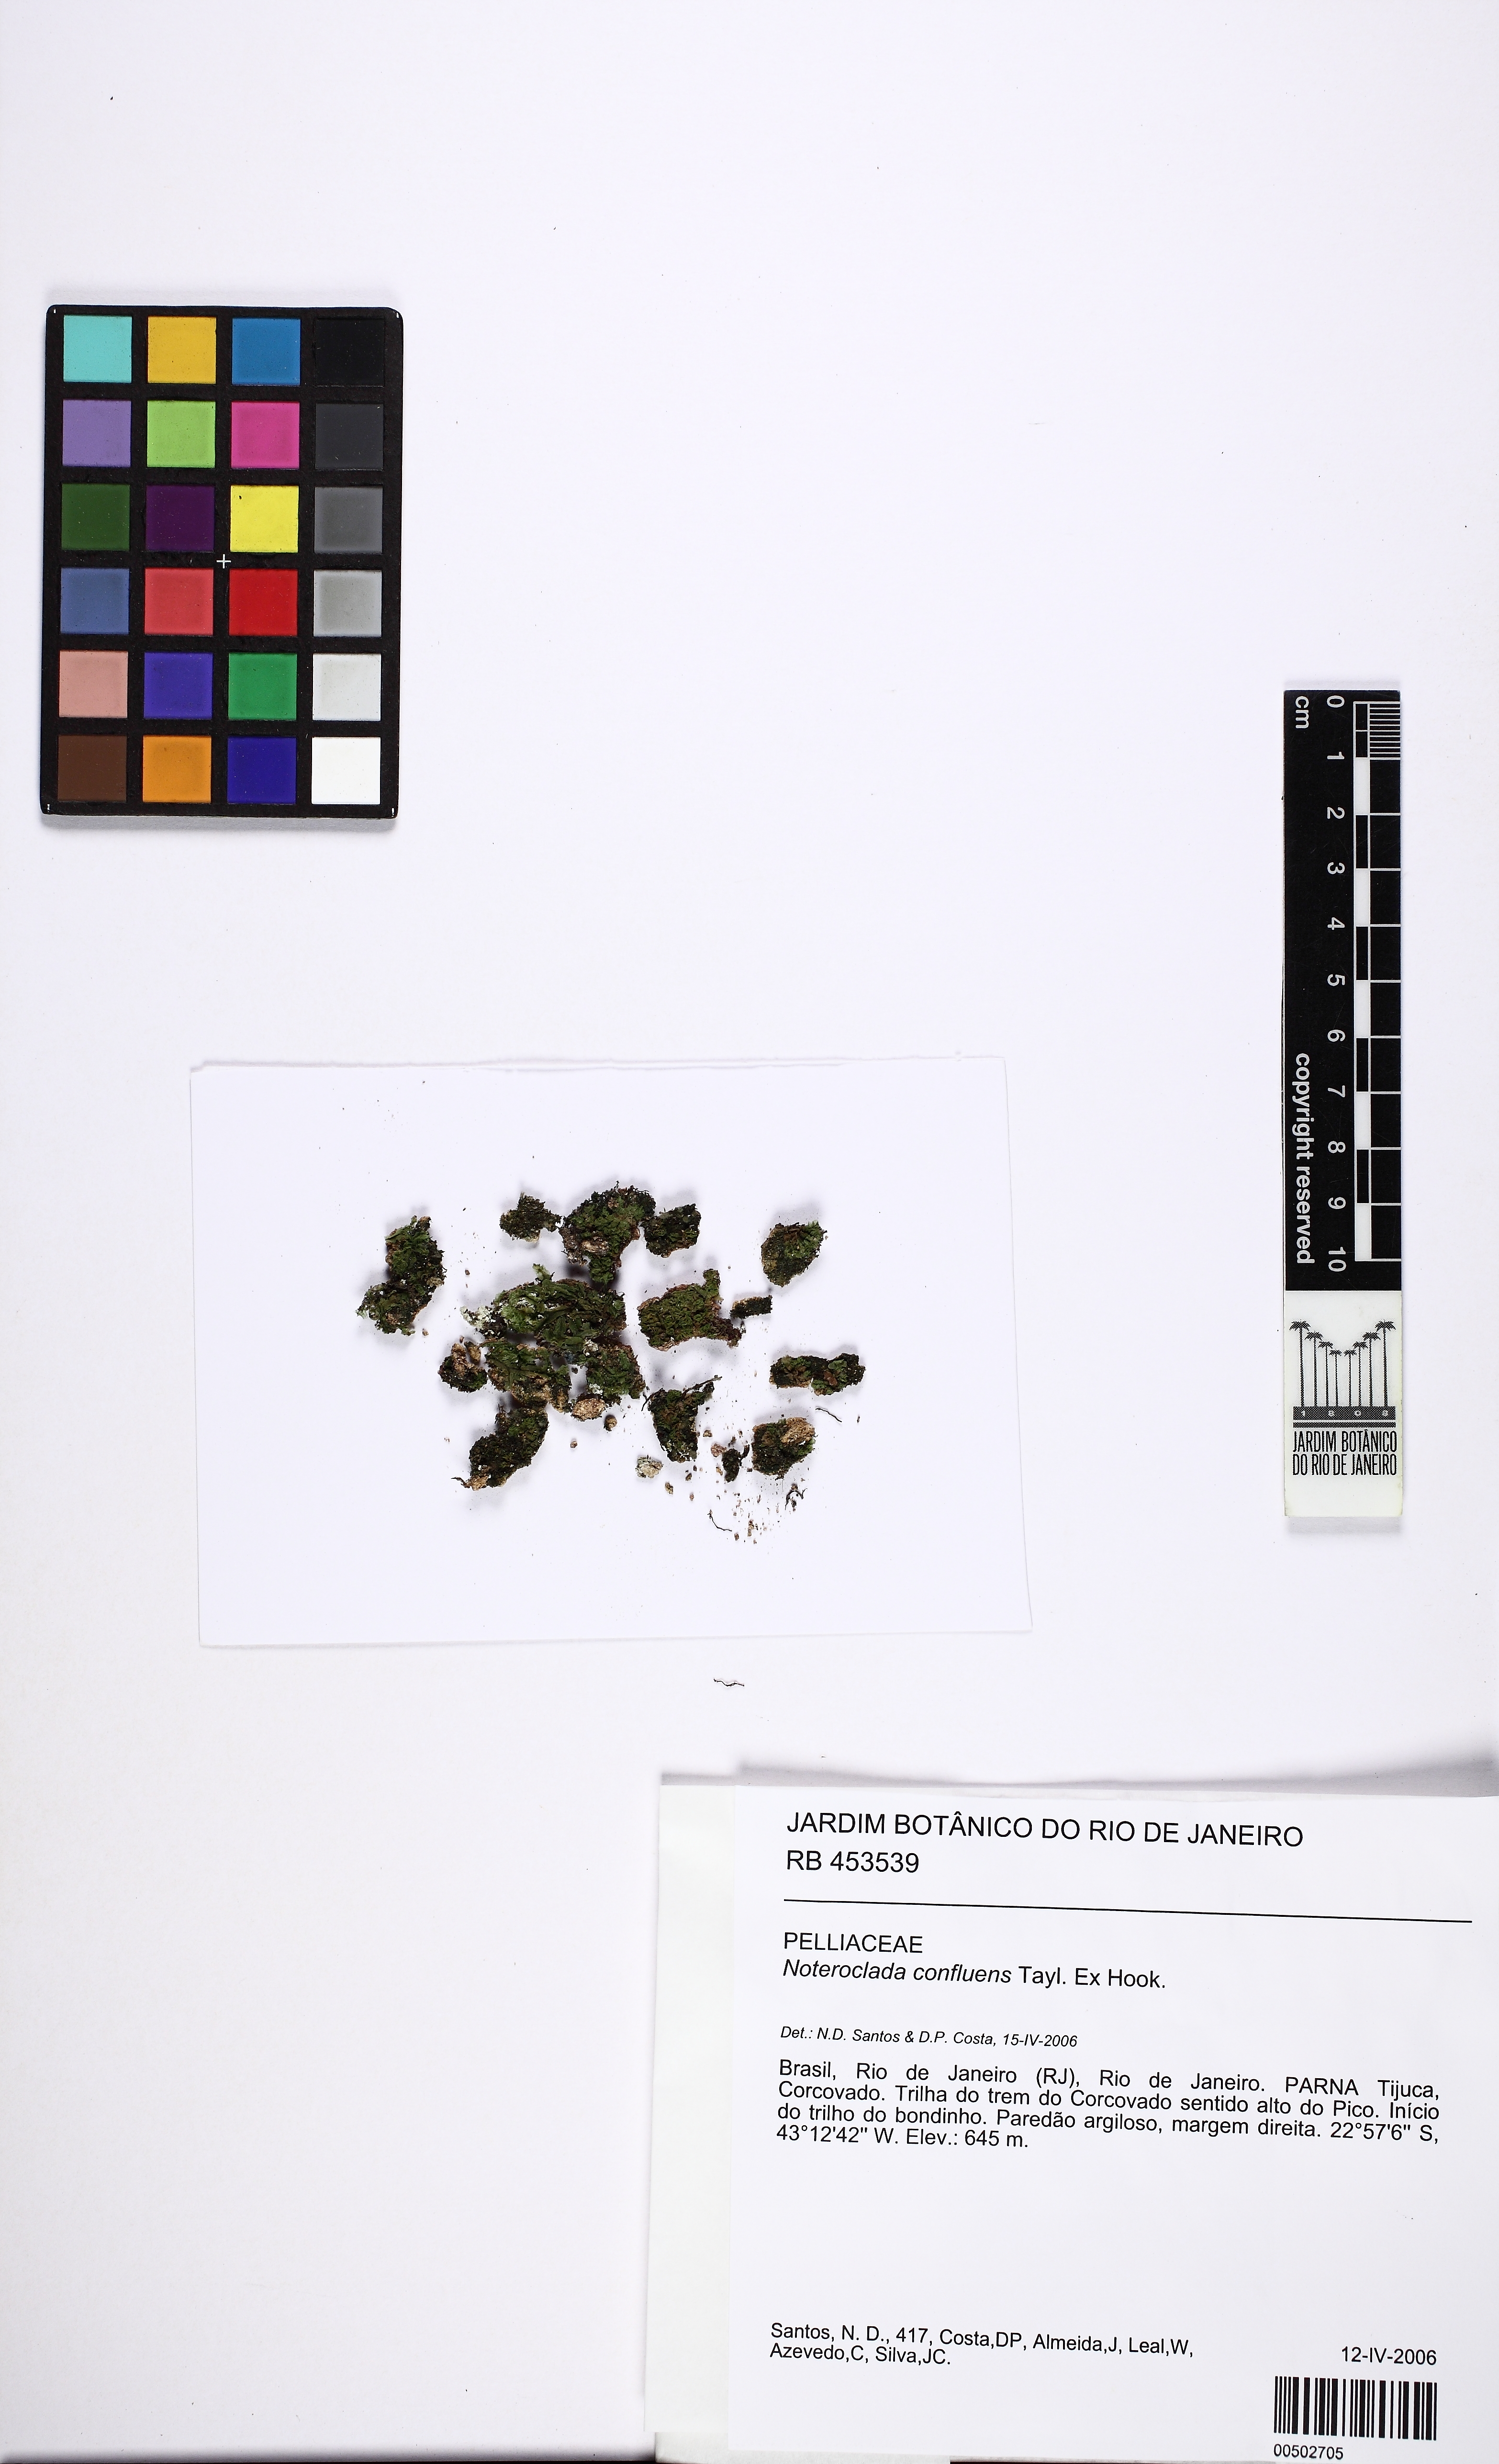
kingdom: Plantae
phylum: Marchantiophyta
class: Jungermanniopsida
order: Pelliales
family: Noterocladaceae
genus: Noteroclada
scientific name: Noteroclada confluens
